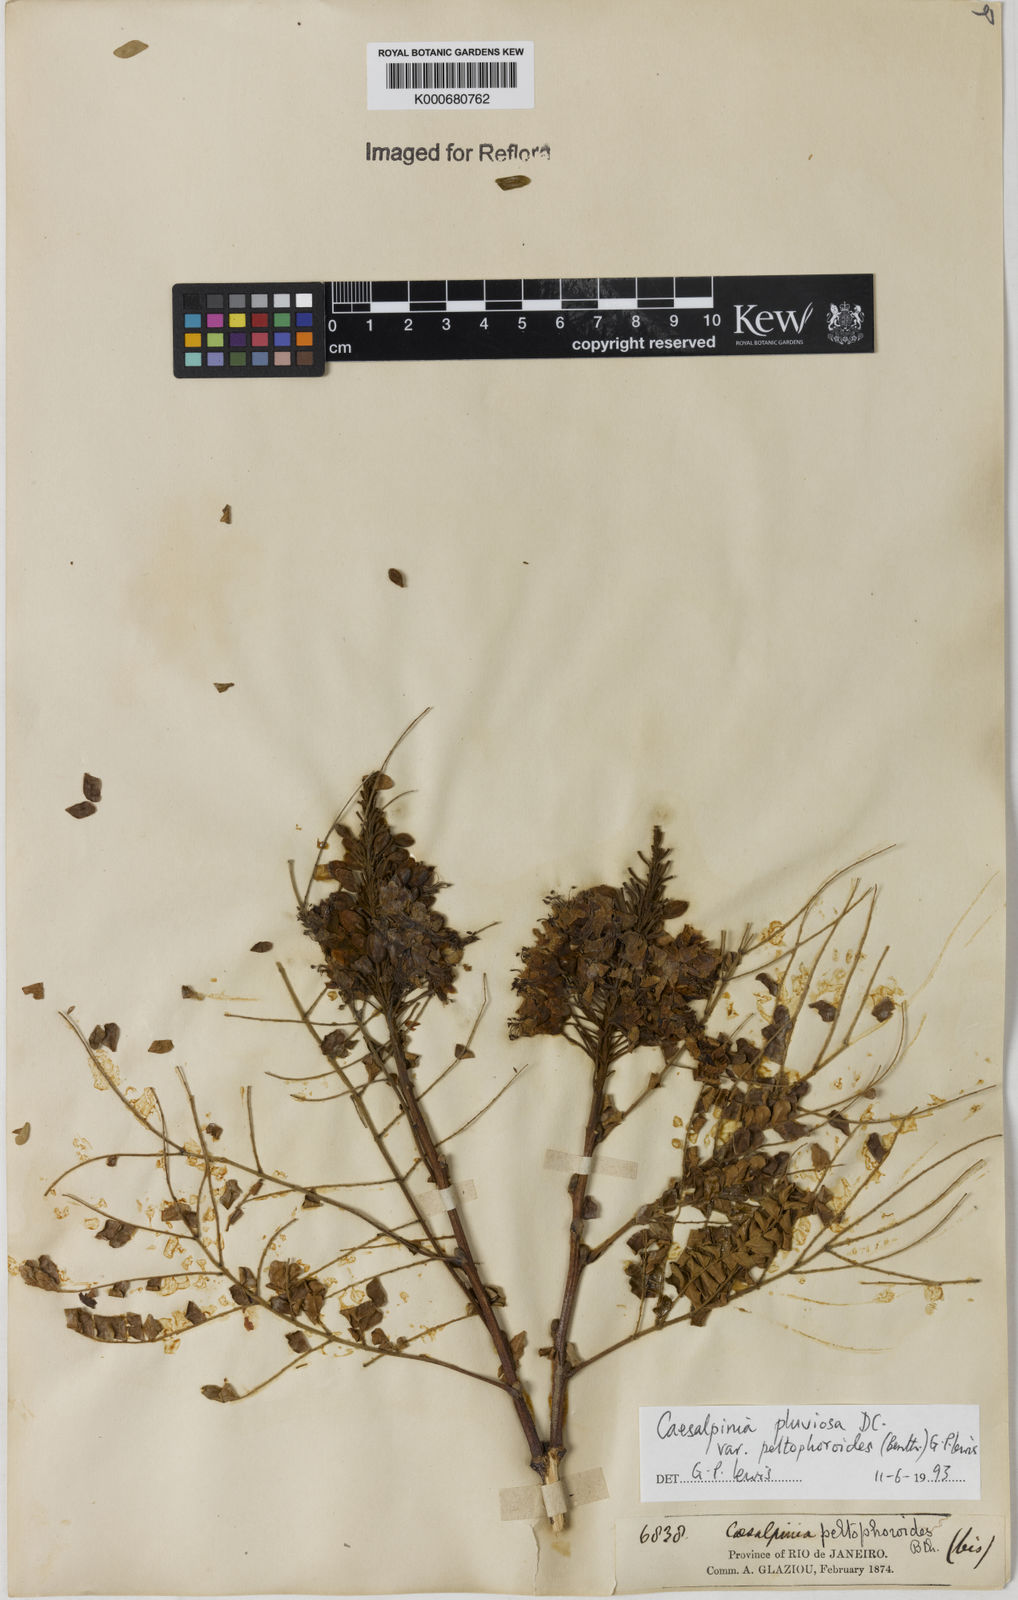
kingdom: Plantae
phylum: Tracheophyta
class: Magnoliopsida
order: Fabales
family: Fabaceae
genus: Cenostigma
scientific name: Cenostigma pluviosum
